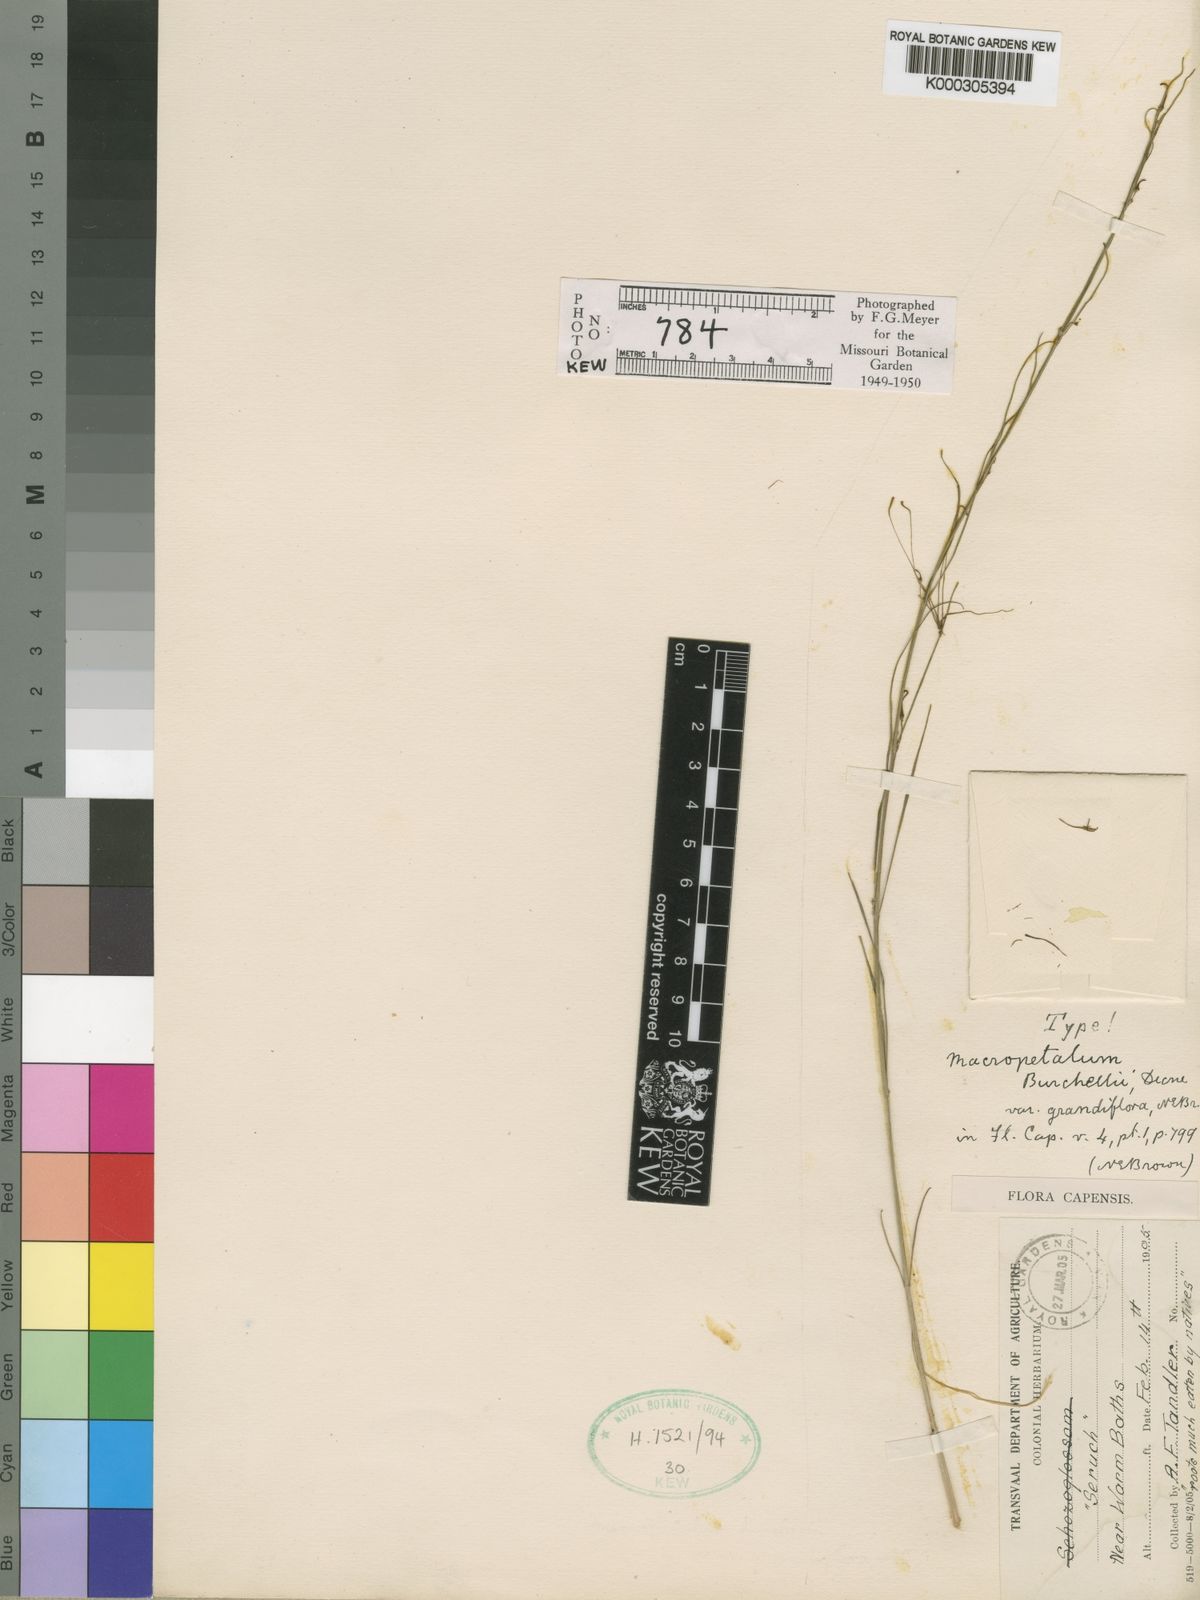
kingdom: Plantae
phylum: Tracheophyta
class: Magnoliopsida
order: Gentianales
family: Apocynaceae
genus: Ceropegia
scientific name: Ceropegia burchelliana
